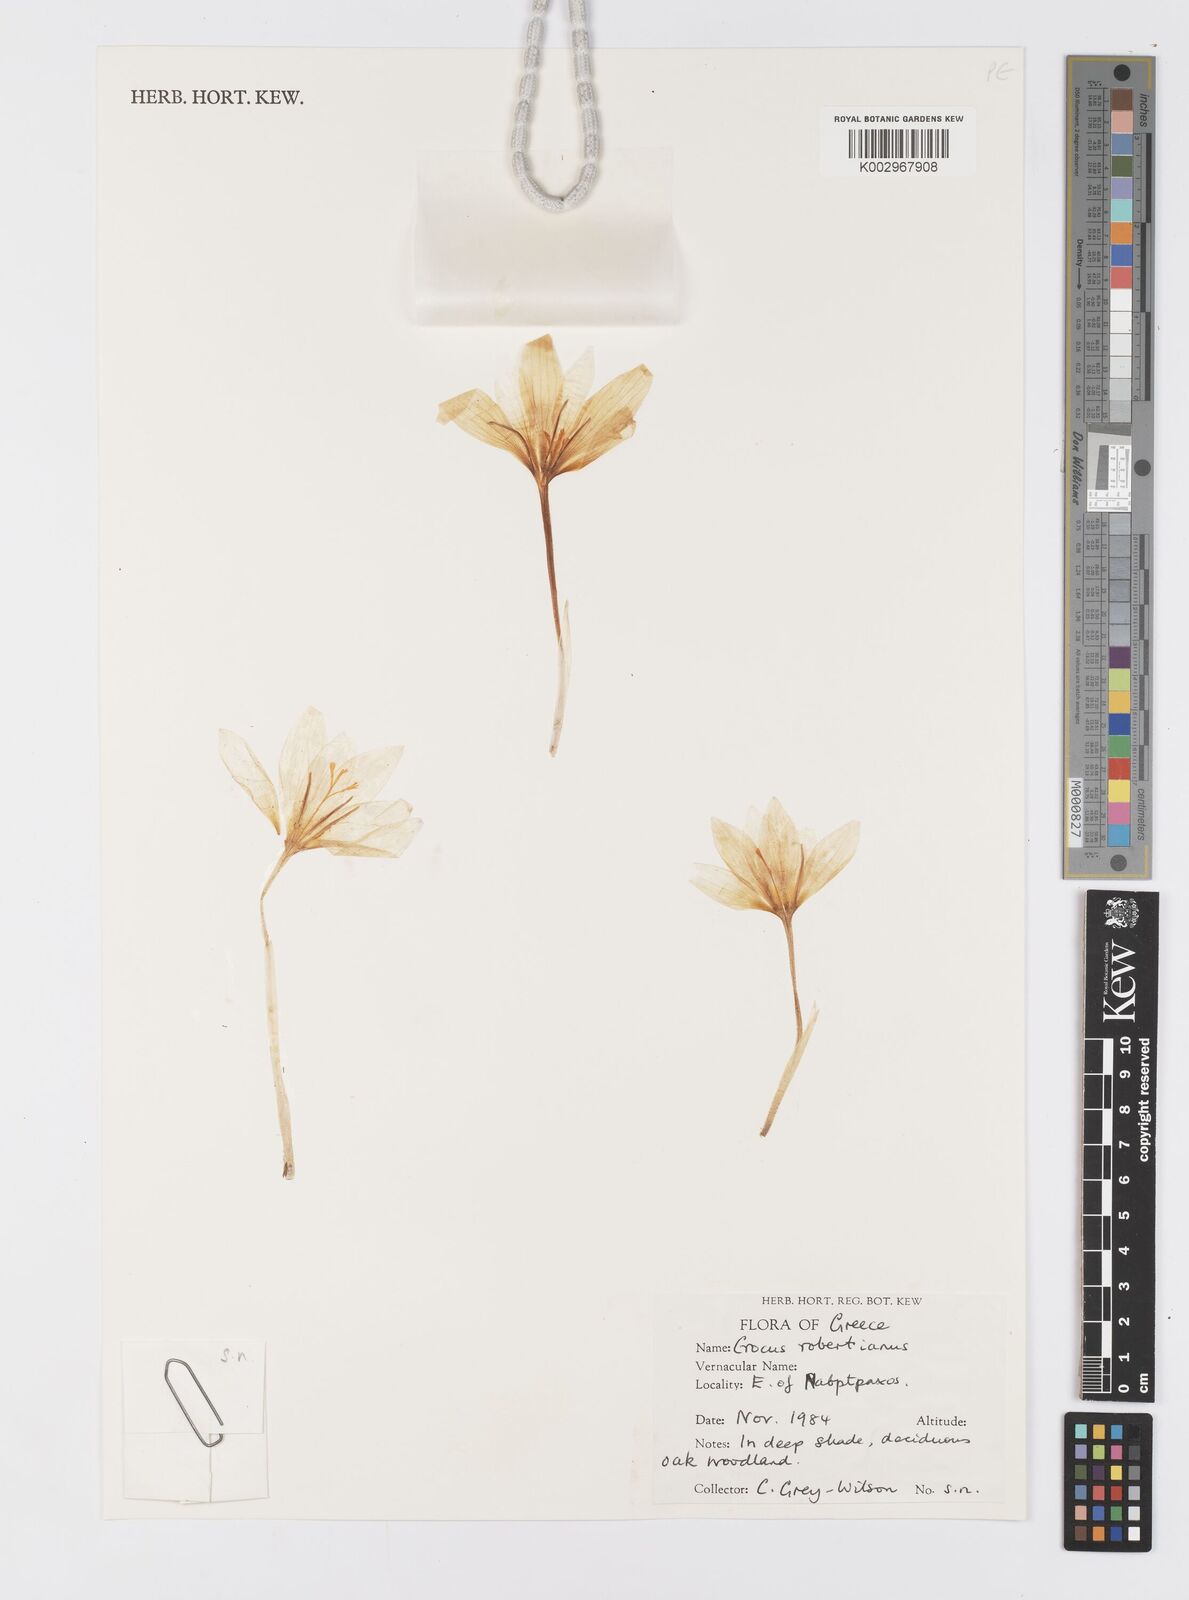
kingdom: Plantae
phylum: Tracheophyta
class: Liliopsida
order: Asparagales
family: Iridaceae
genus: Crocus
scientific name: Crocus robertianus
